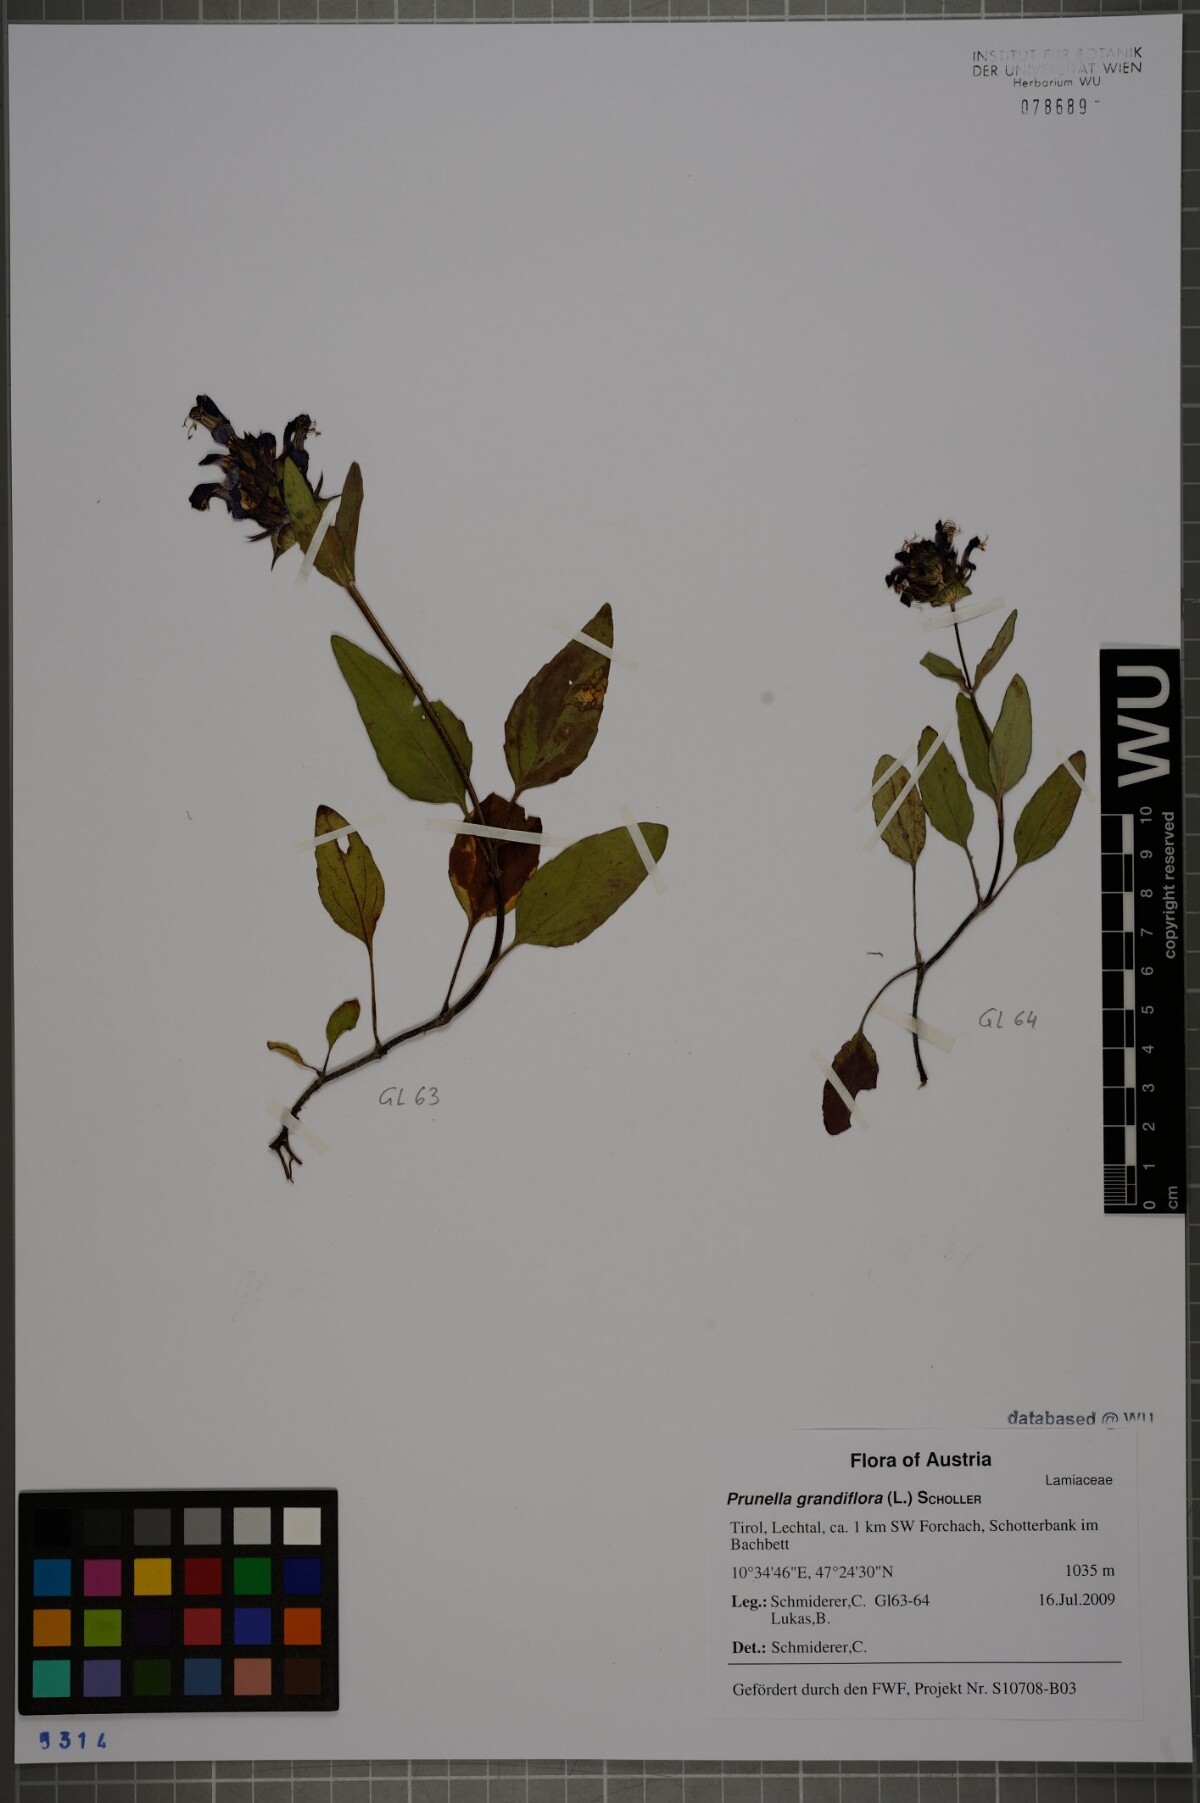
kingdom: Plantae
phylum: Tracheophyta
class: Magnoliopsida
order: Lamiales
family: Lamiaceae
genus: Prunella
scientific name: Prunella grandiflora
